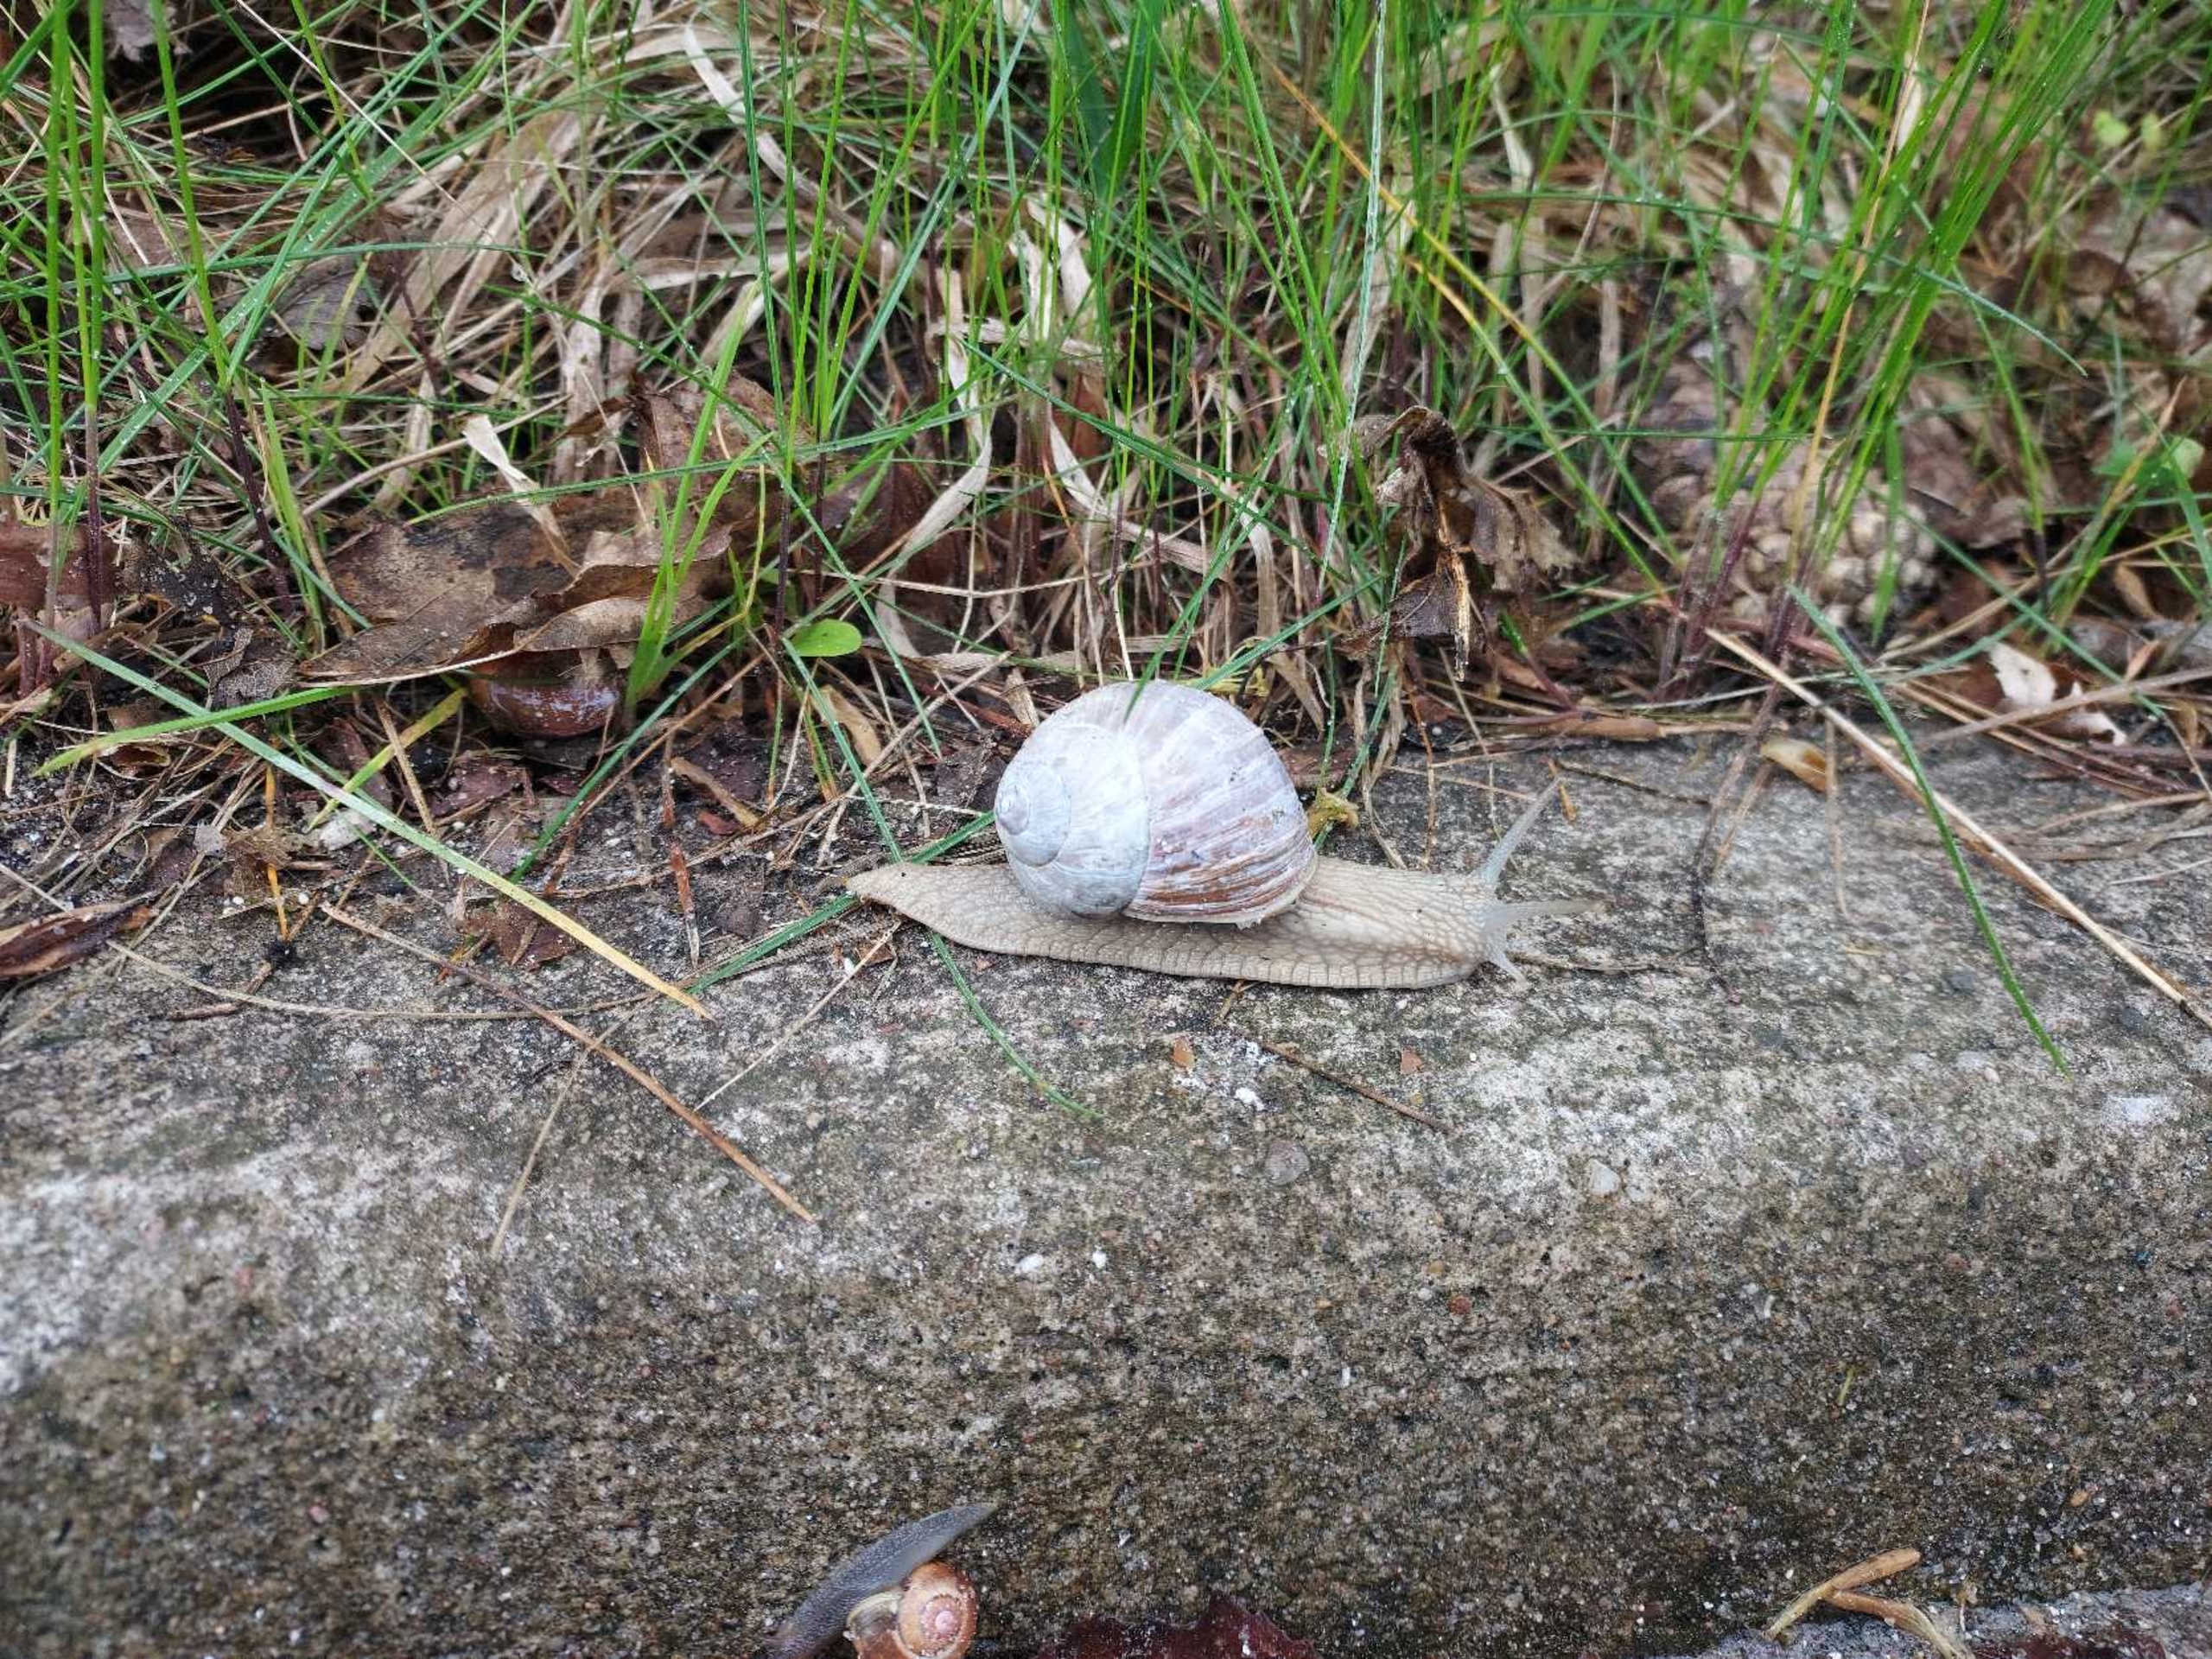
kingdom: Animalia
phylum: Mollusca
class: Gastropoda
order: Stylommatophora
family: Helicidae
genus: Helix
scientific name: Helix pomatia
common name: Vinbjergsnegl
